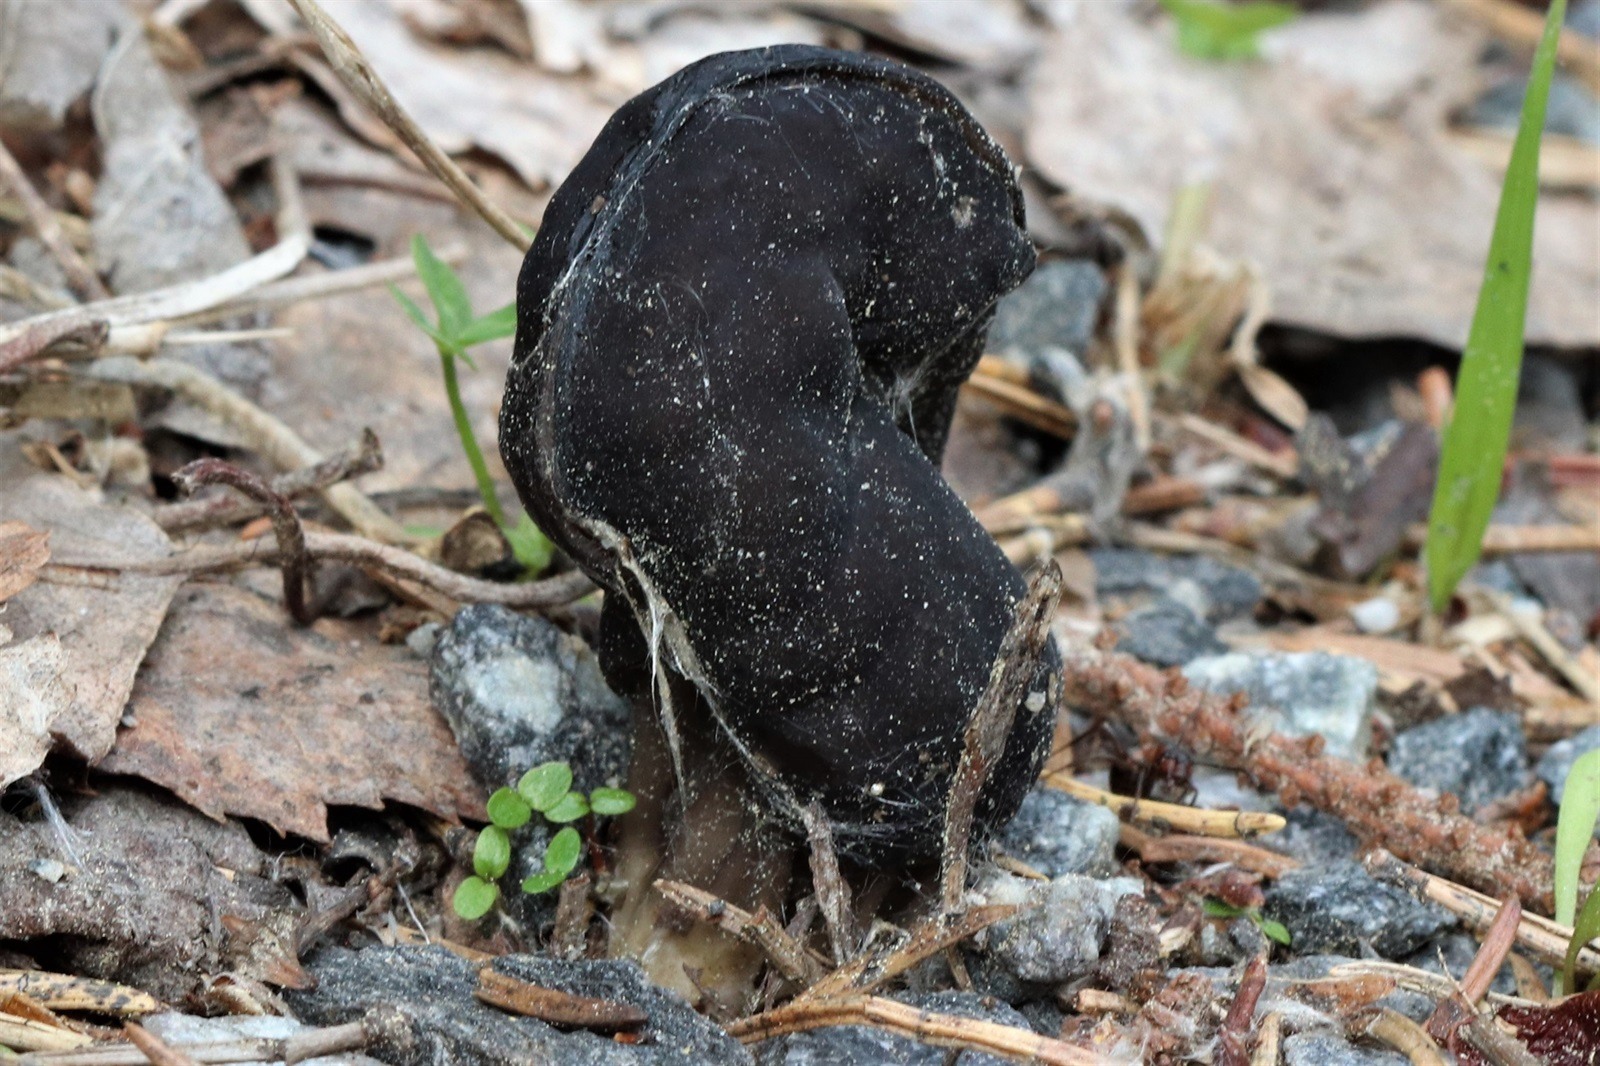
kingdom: Fungi
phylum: Ascomycota
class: Pezizomycetes
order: Pezizales
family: Helvellaceae
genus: Helvella
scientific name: Helvella crispa
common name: White saddle
